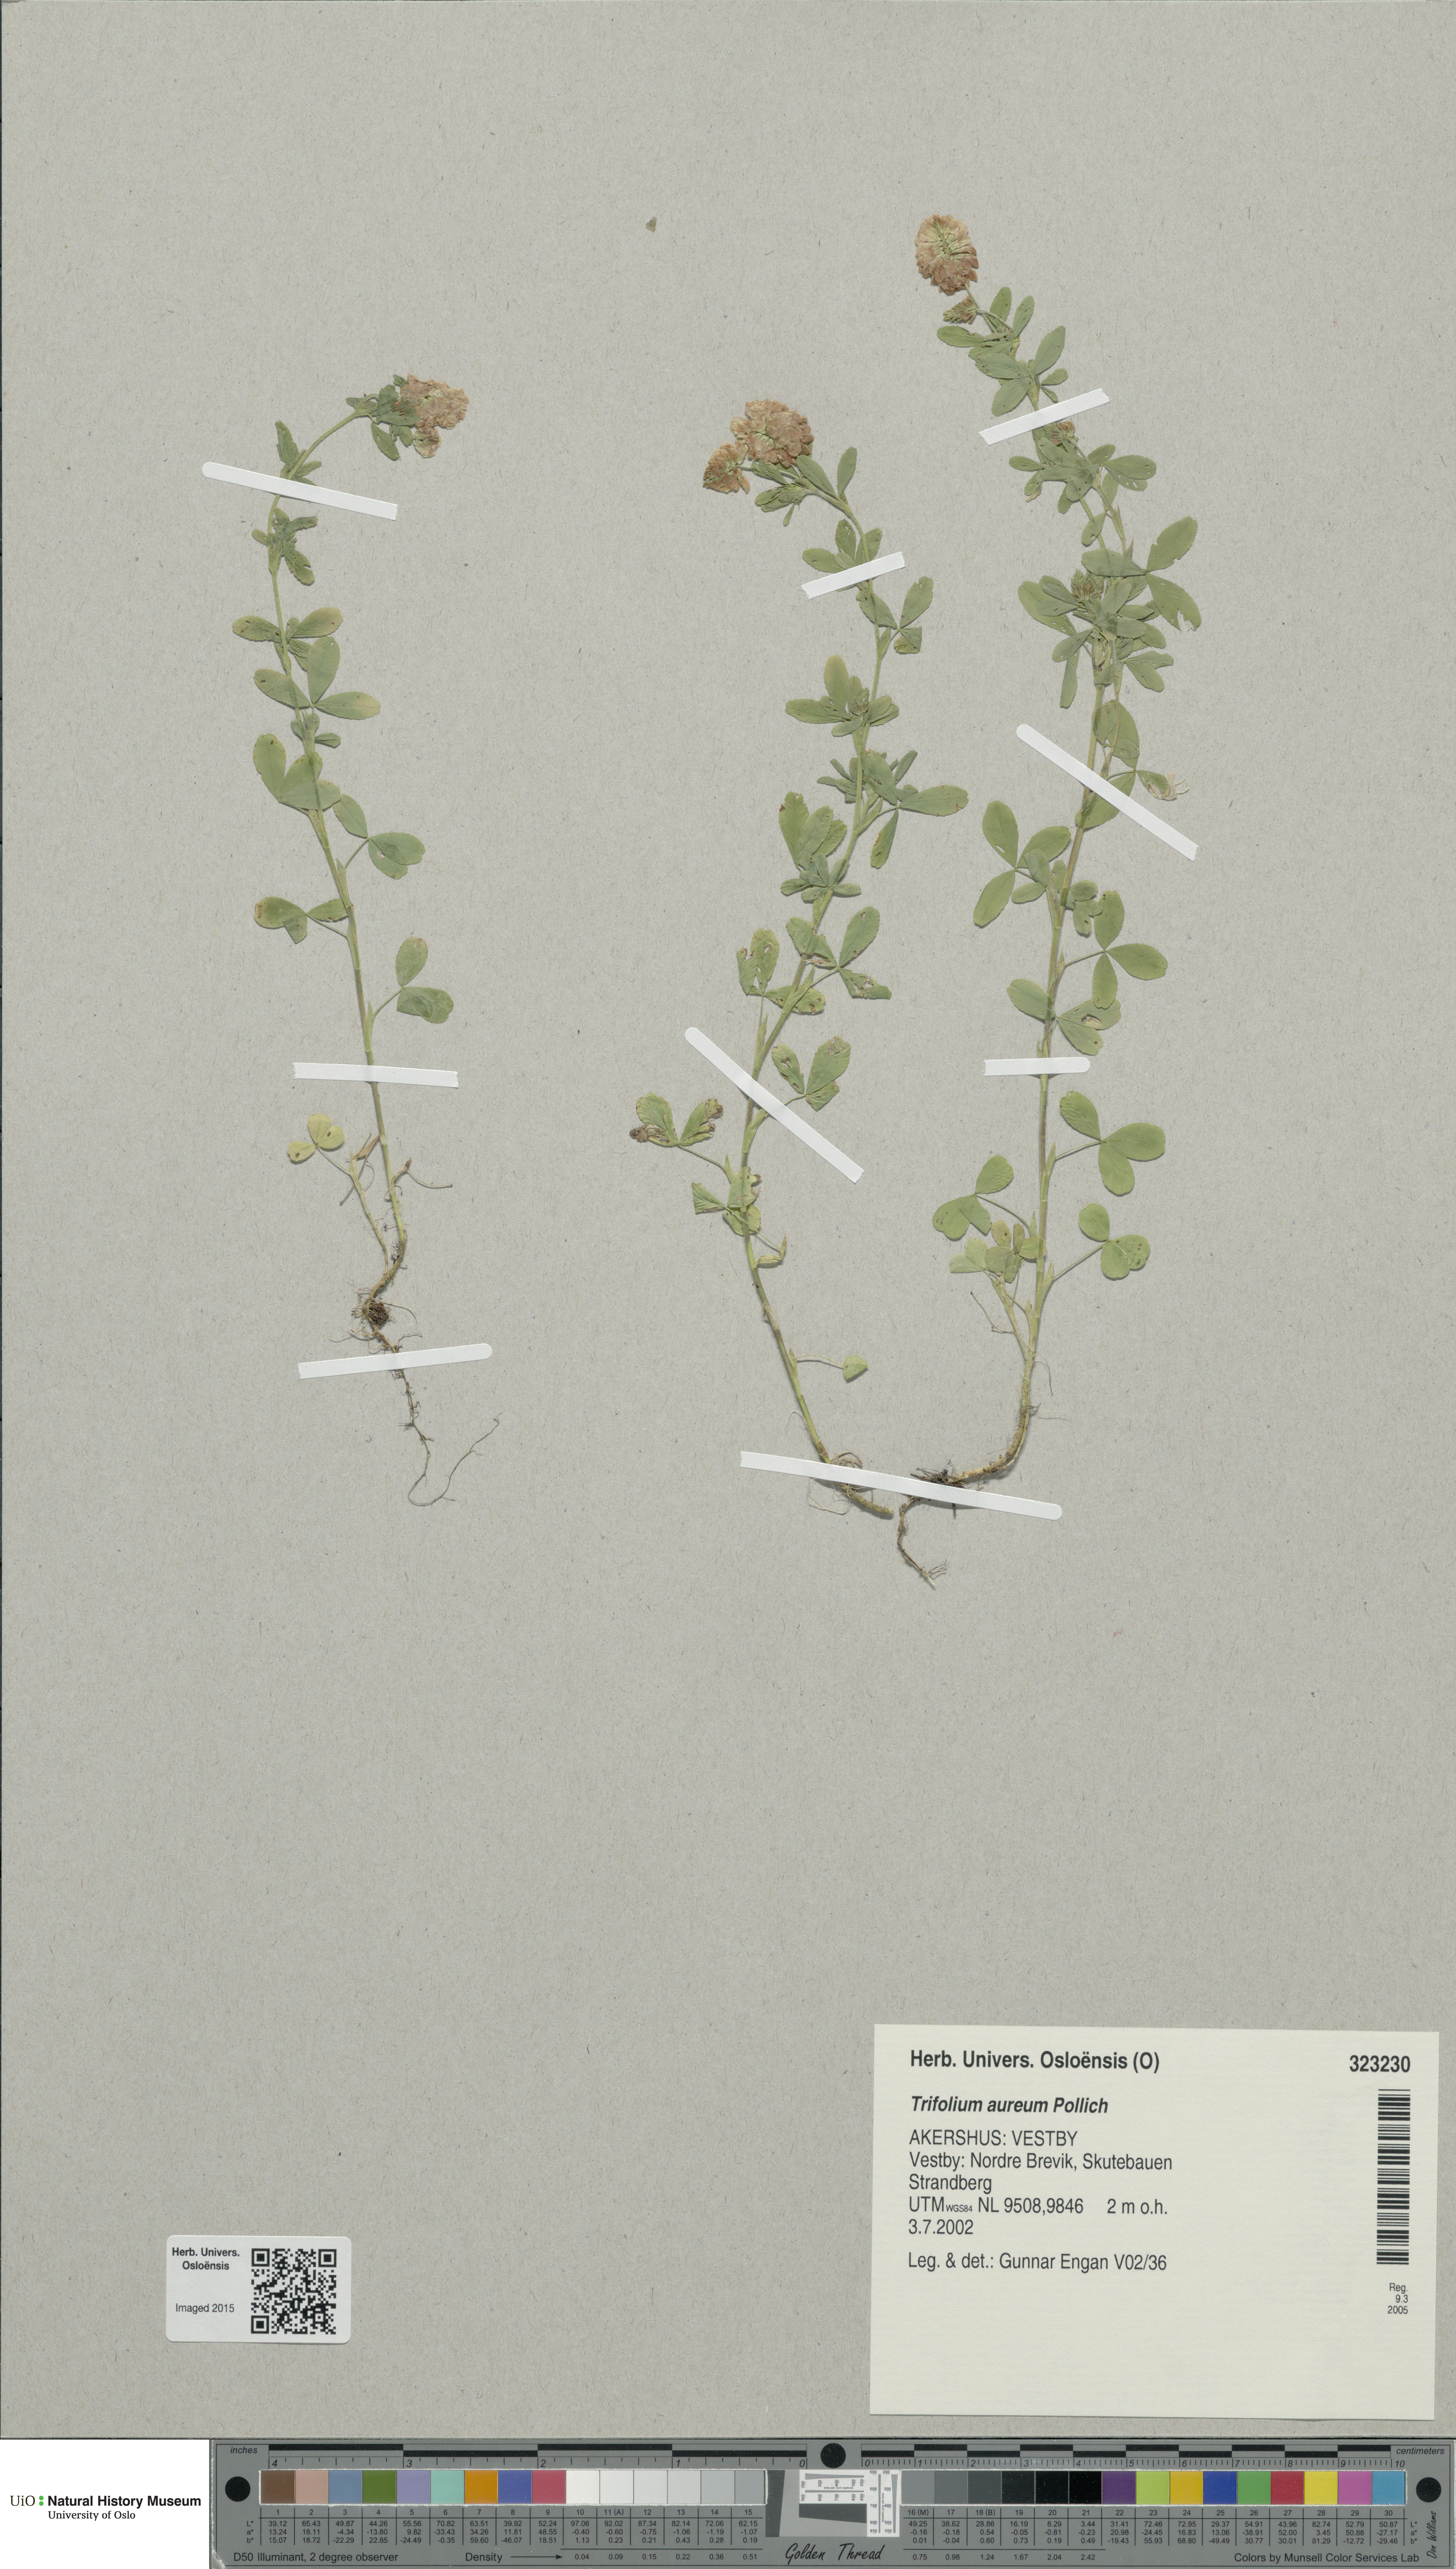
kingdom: Plantae
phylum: Tracheophyta
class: Magnoliopsida
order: Fabales
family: Fabaceae
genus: Trifolium
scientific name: Trifolium aureum
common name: Golden clover
